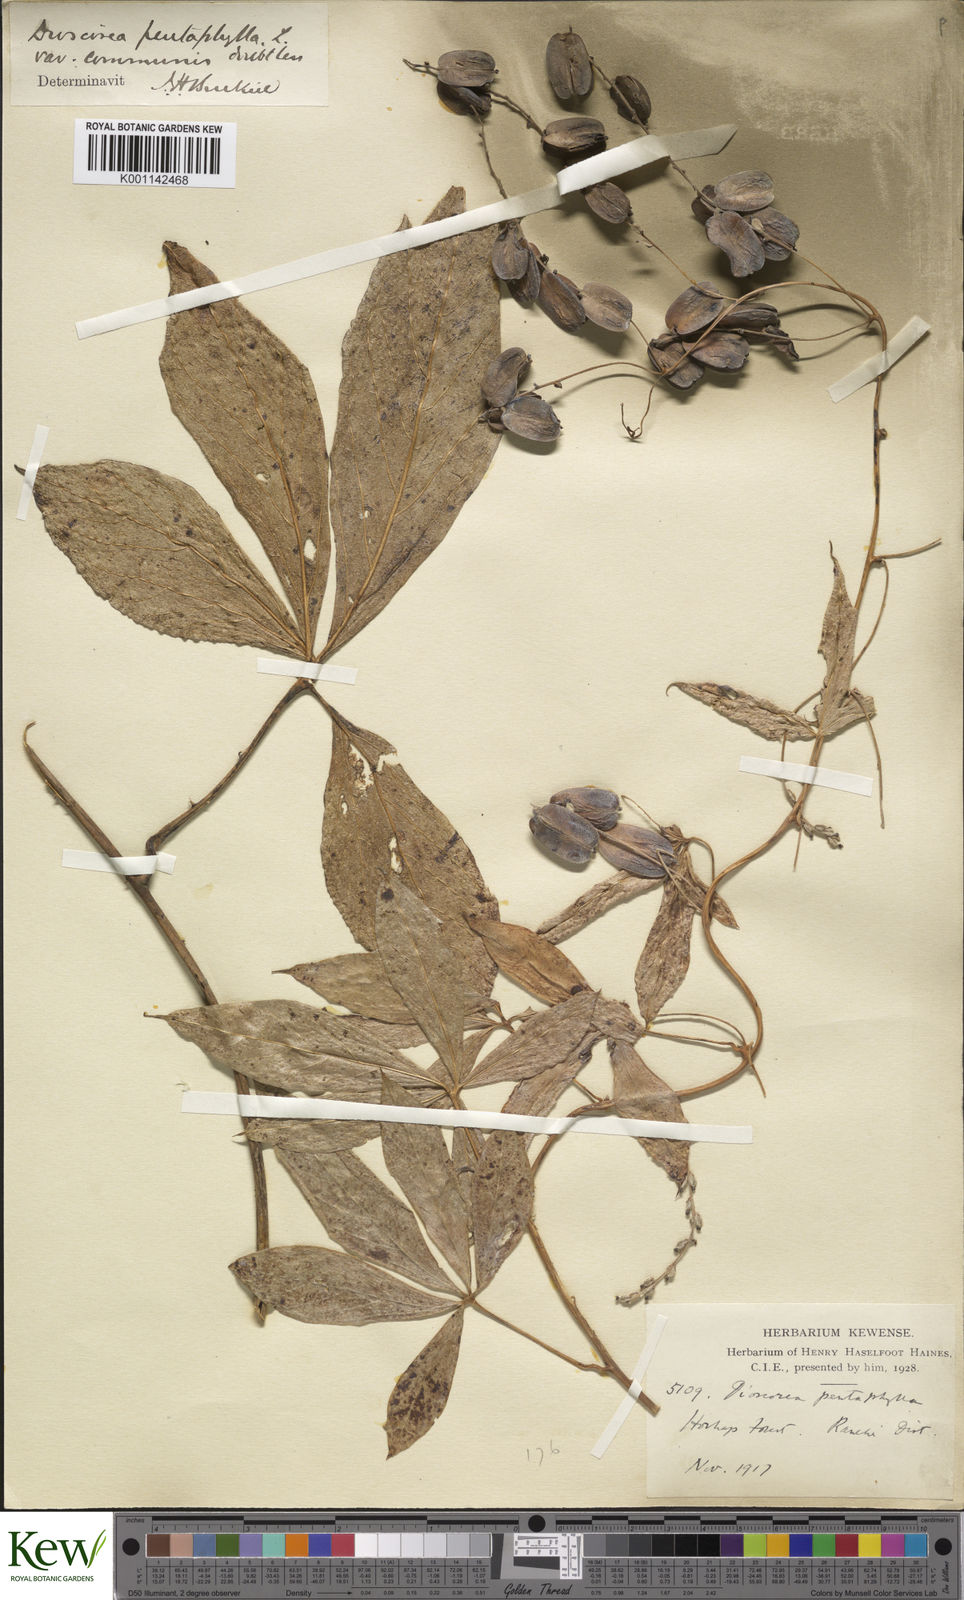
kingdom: Plantae
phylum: Tracheophyta
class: Liliopsida
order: Dioscoreales
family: Dioscoreaceae
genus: Dioscorea
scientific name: Dioscorea pentaphylla
